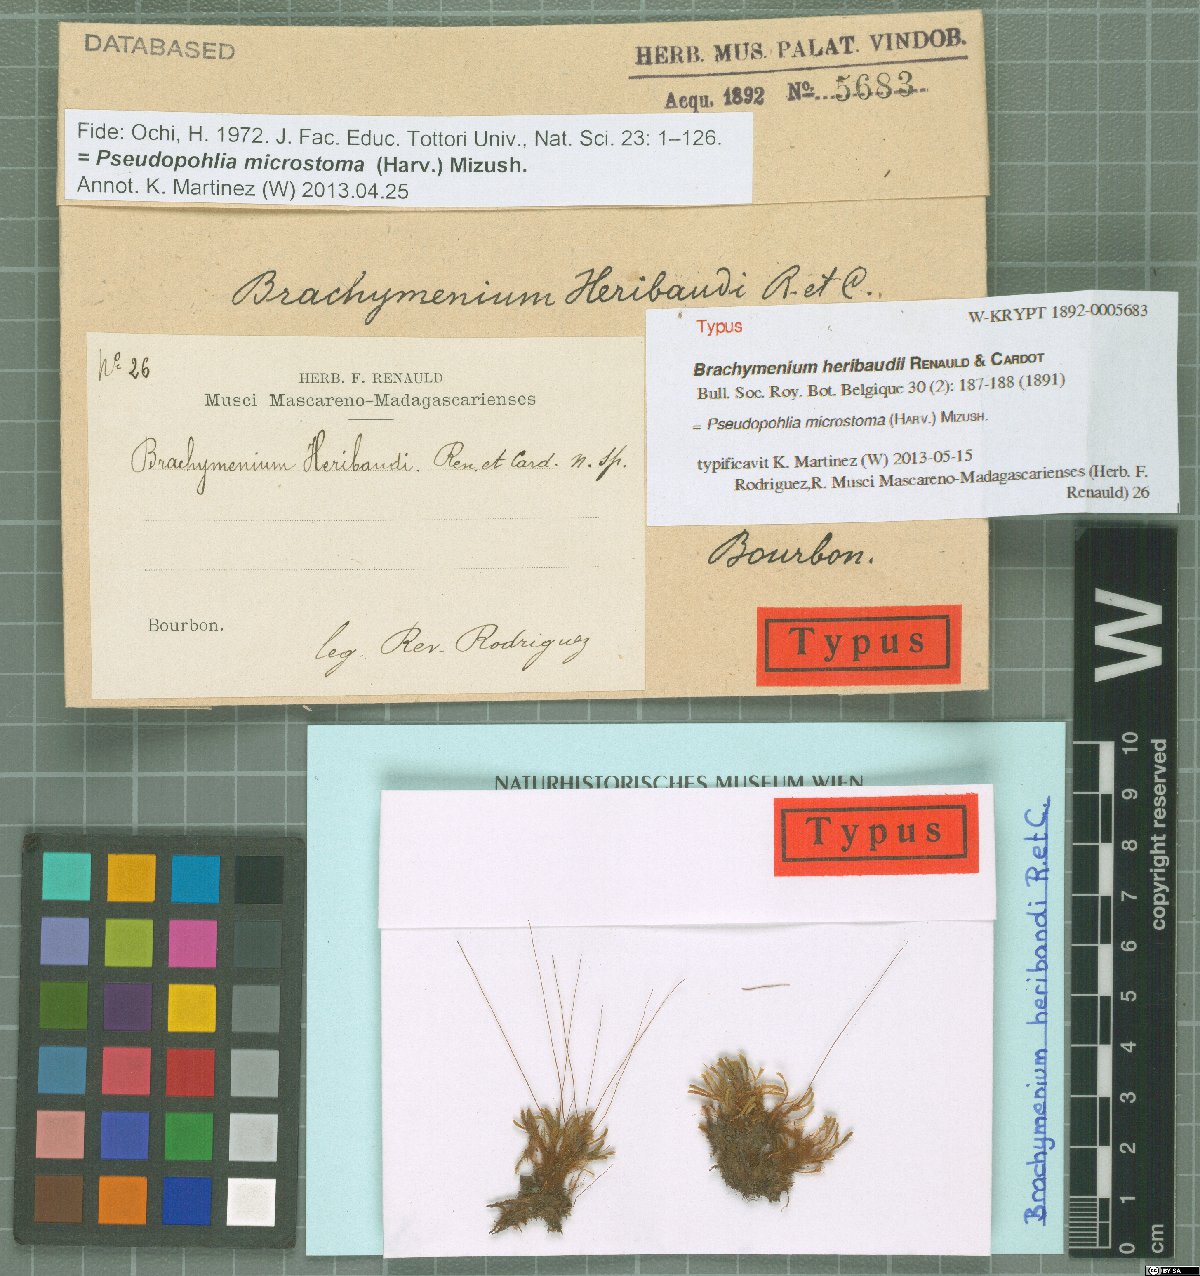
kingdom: Plantae
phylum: Bryophyta
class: Bryopsida
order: Bryales
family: Mniaceae
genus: Pseudopohlia
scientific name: Pseudopohlia microstoma
